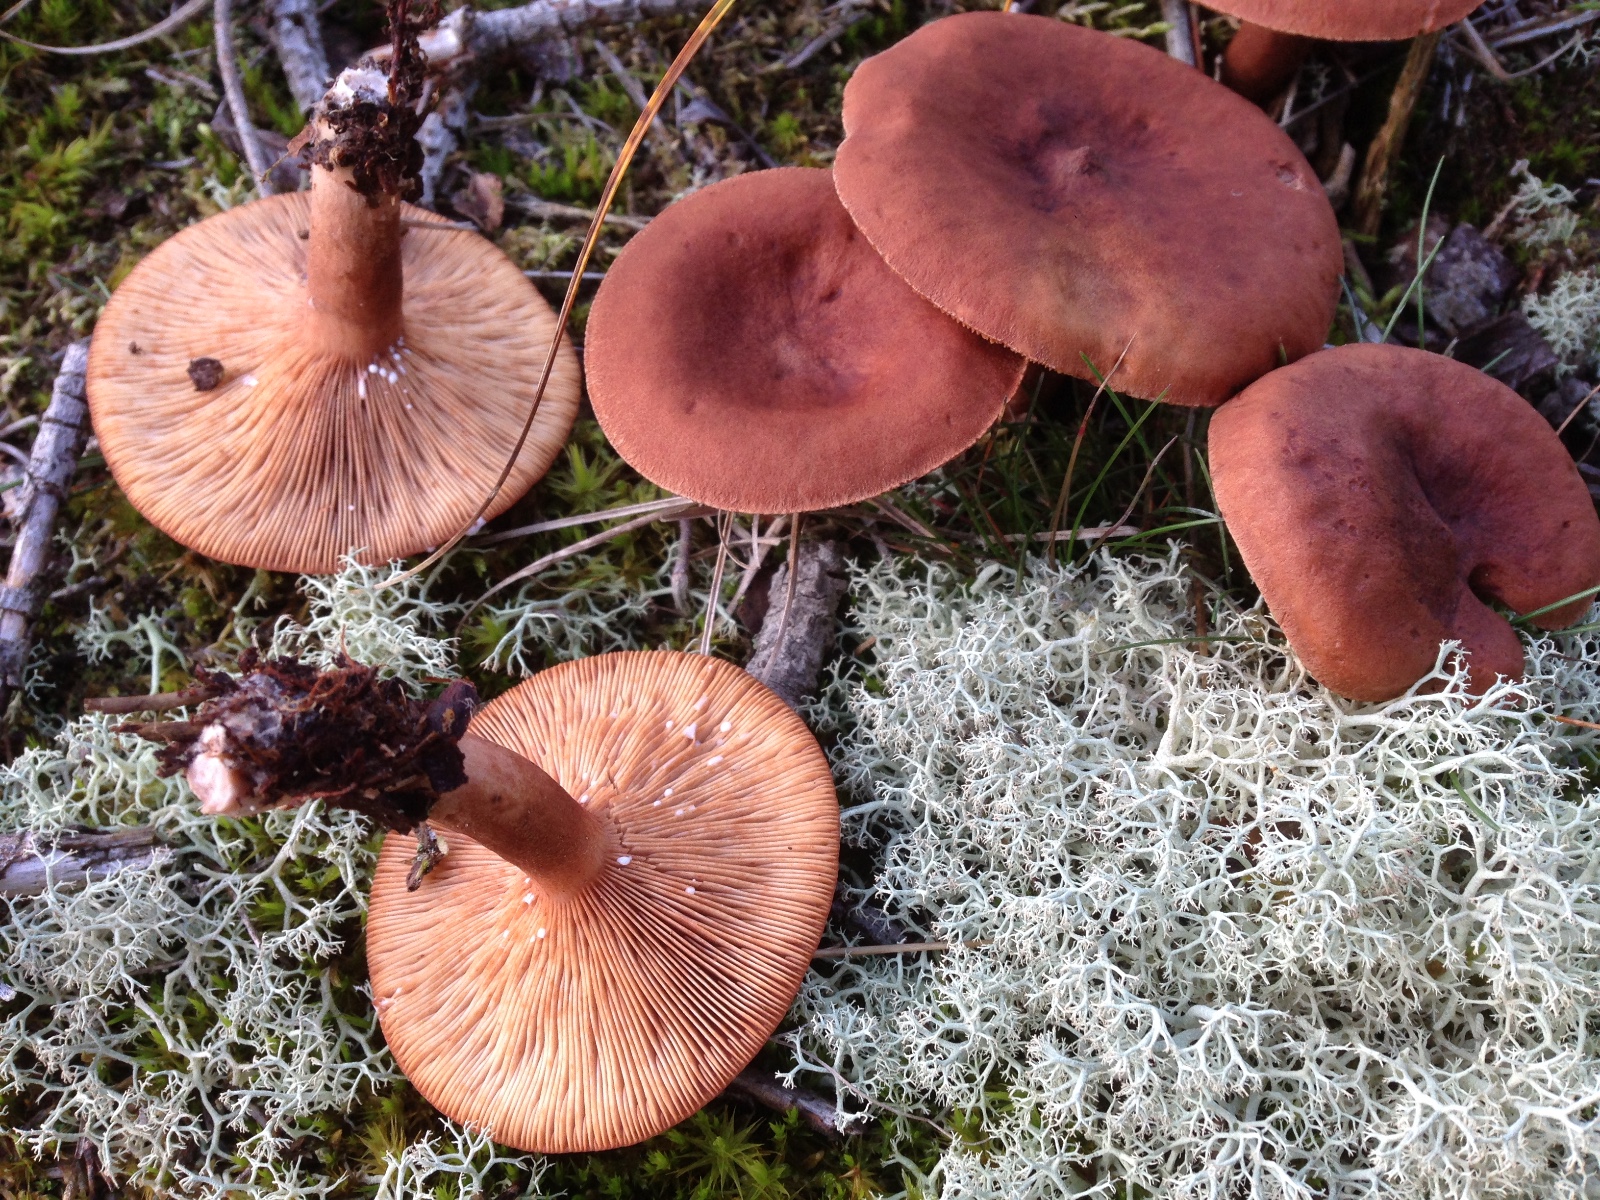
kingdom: Fungi
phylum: Basidiomycota
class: Agaricomycetes
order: Russulales
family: Russulaceae
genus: Lactarius
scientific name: Lactarius rufus
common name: rødbrun mælkehat
